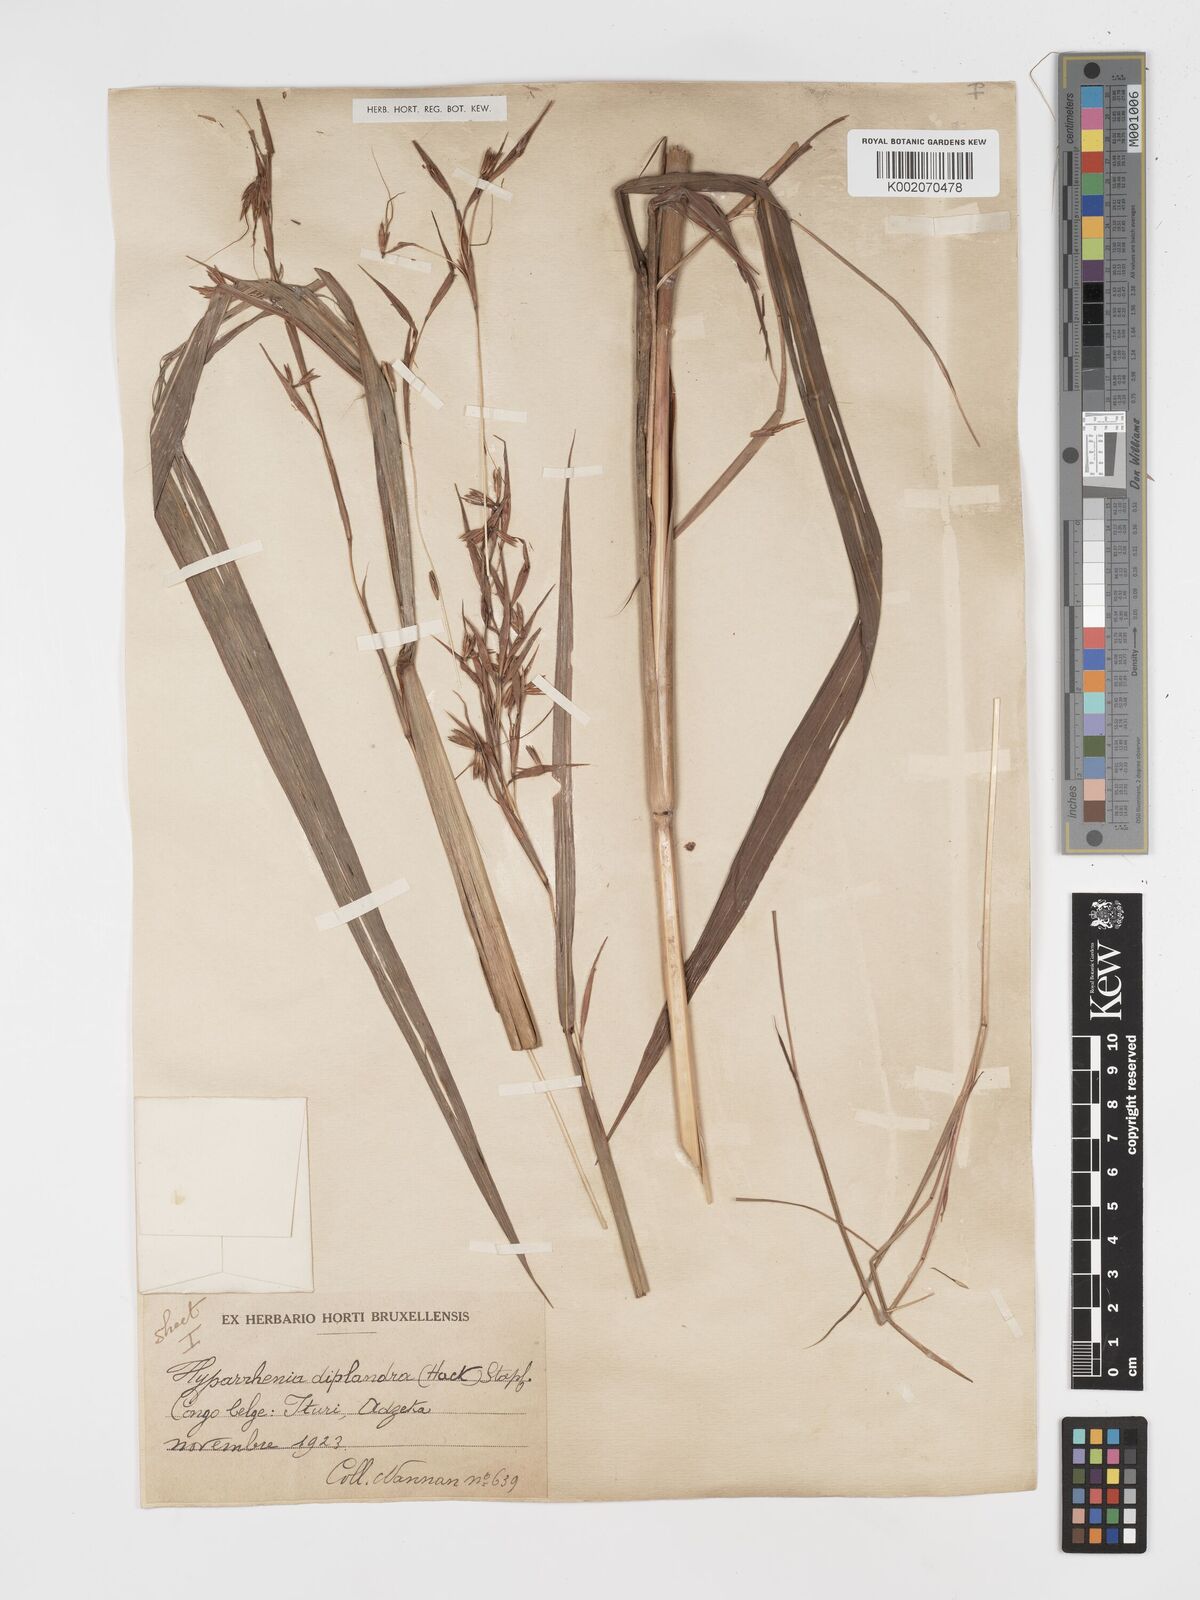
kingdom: Plantae
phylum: Tracheophyta
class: Liliopsida
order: Poales
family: Poaceae
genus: Hyparrhenia
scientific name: Hyparrhenia diplandra
